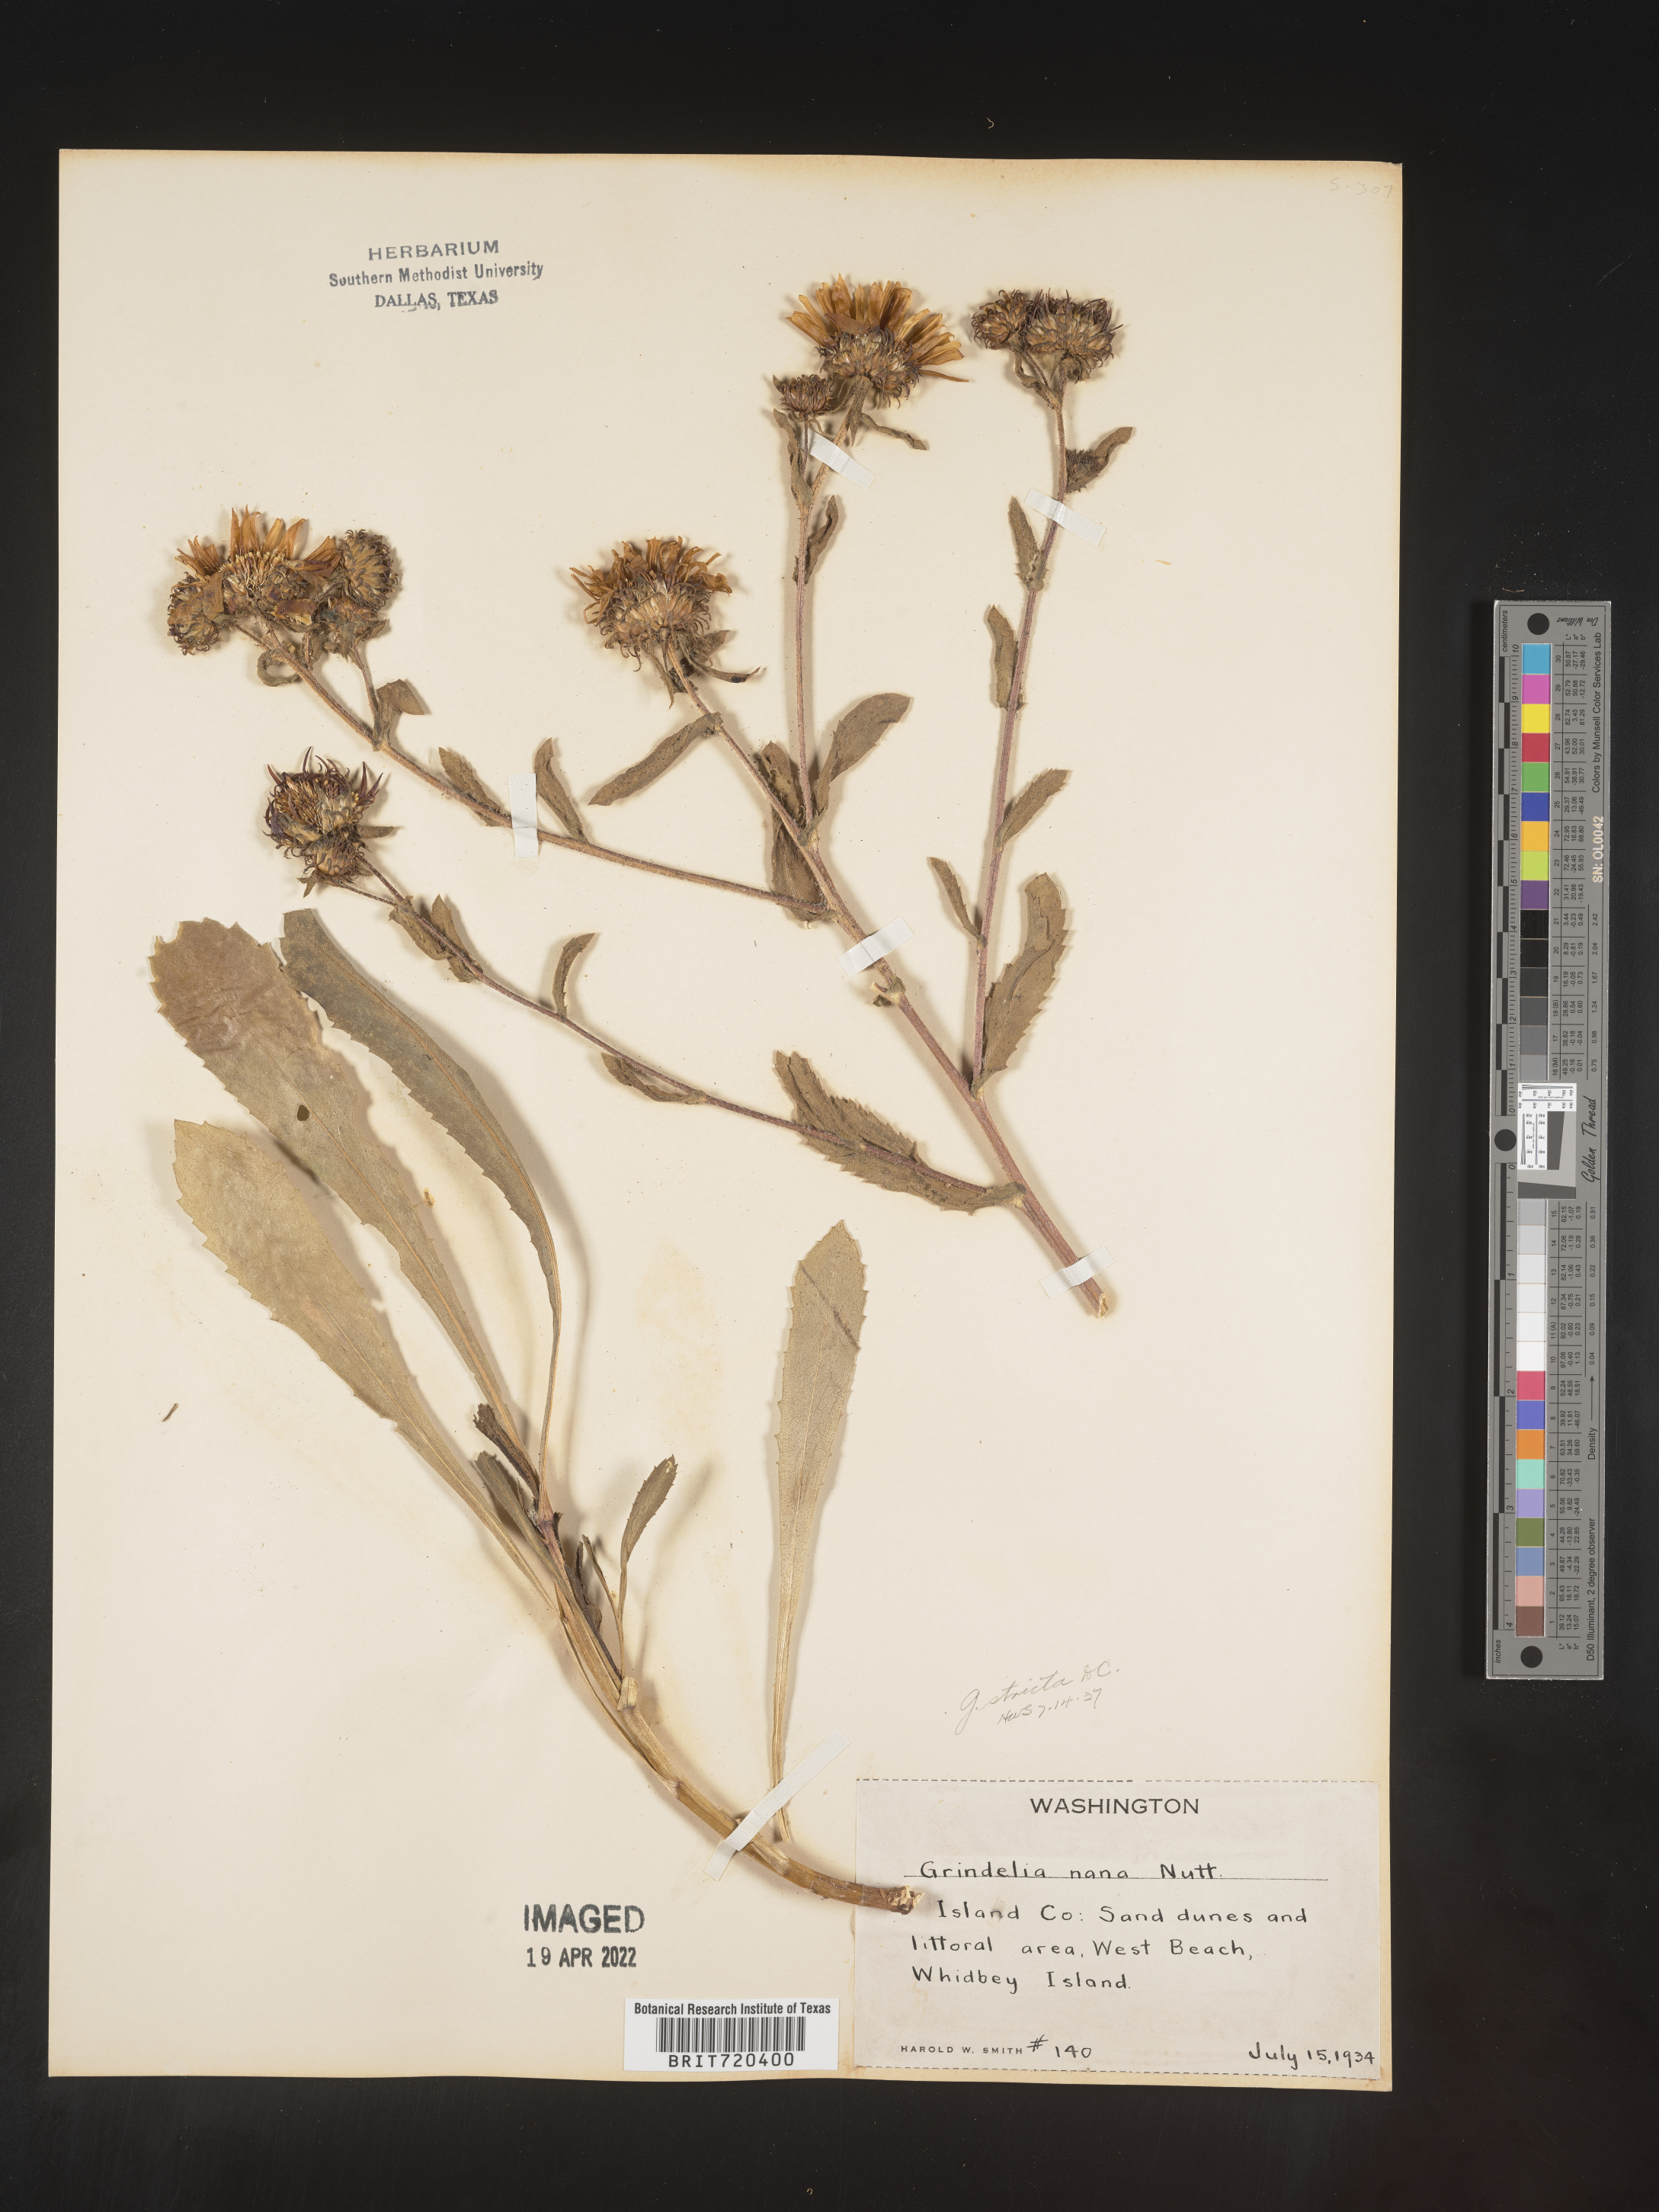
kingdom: Plantae
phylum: Tracheophyta
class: Magnoliopsida
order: Asterales
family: Asteraceae
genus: Grindelia
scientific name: Grindelia hirsutula
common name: Hairy gumweed
